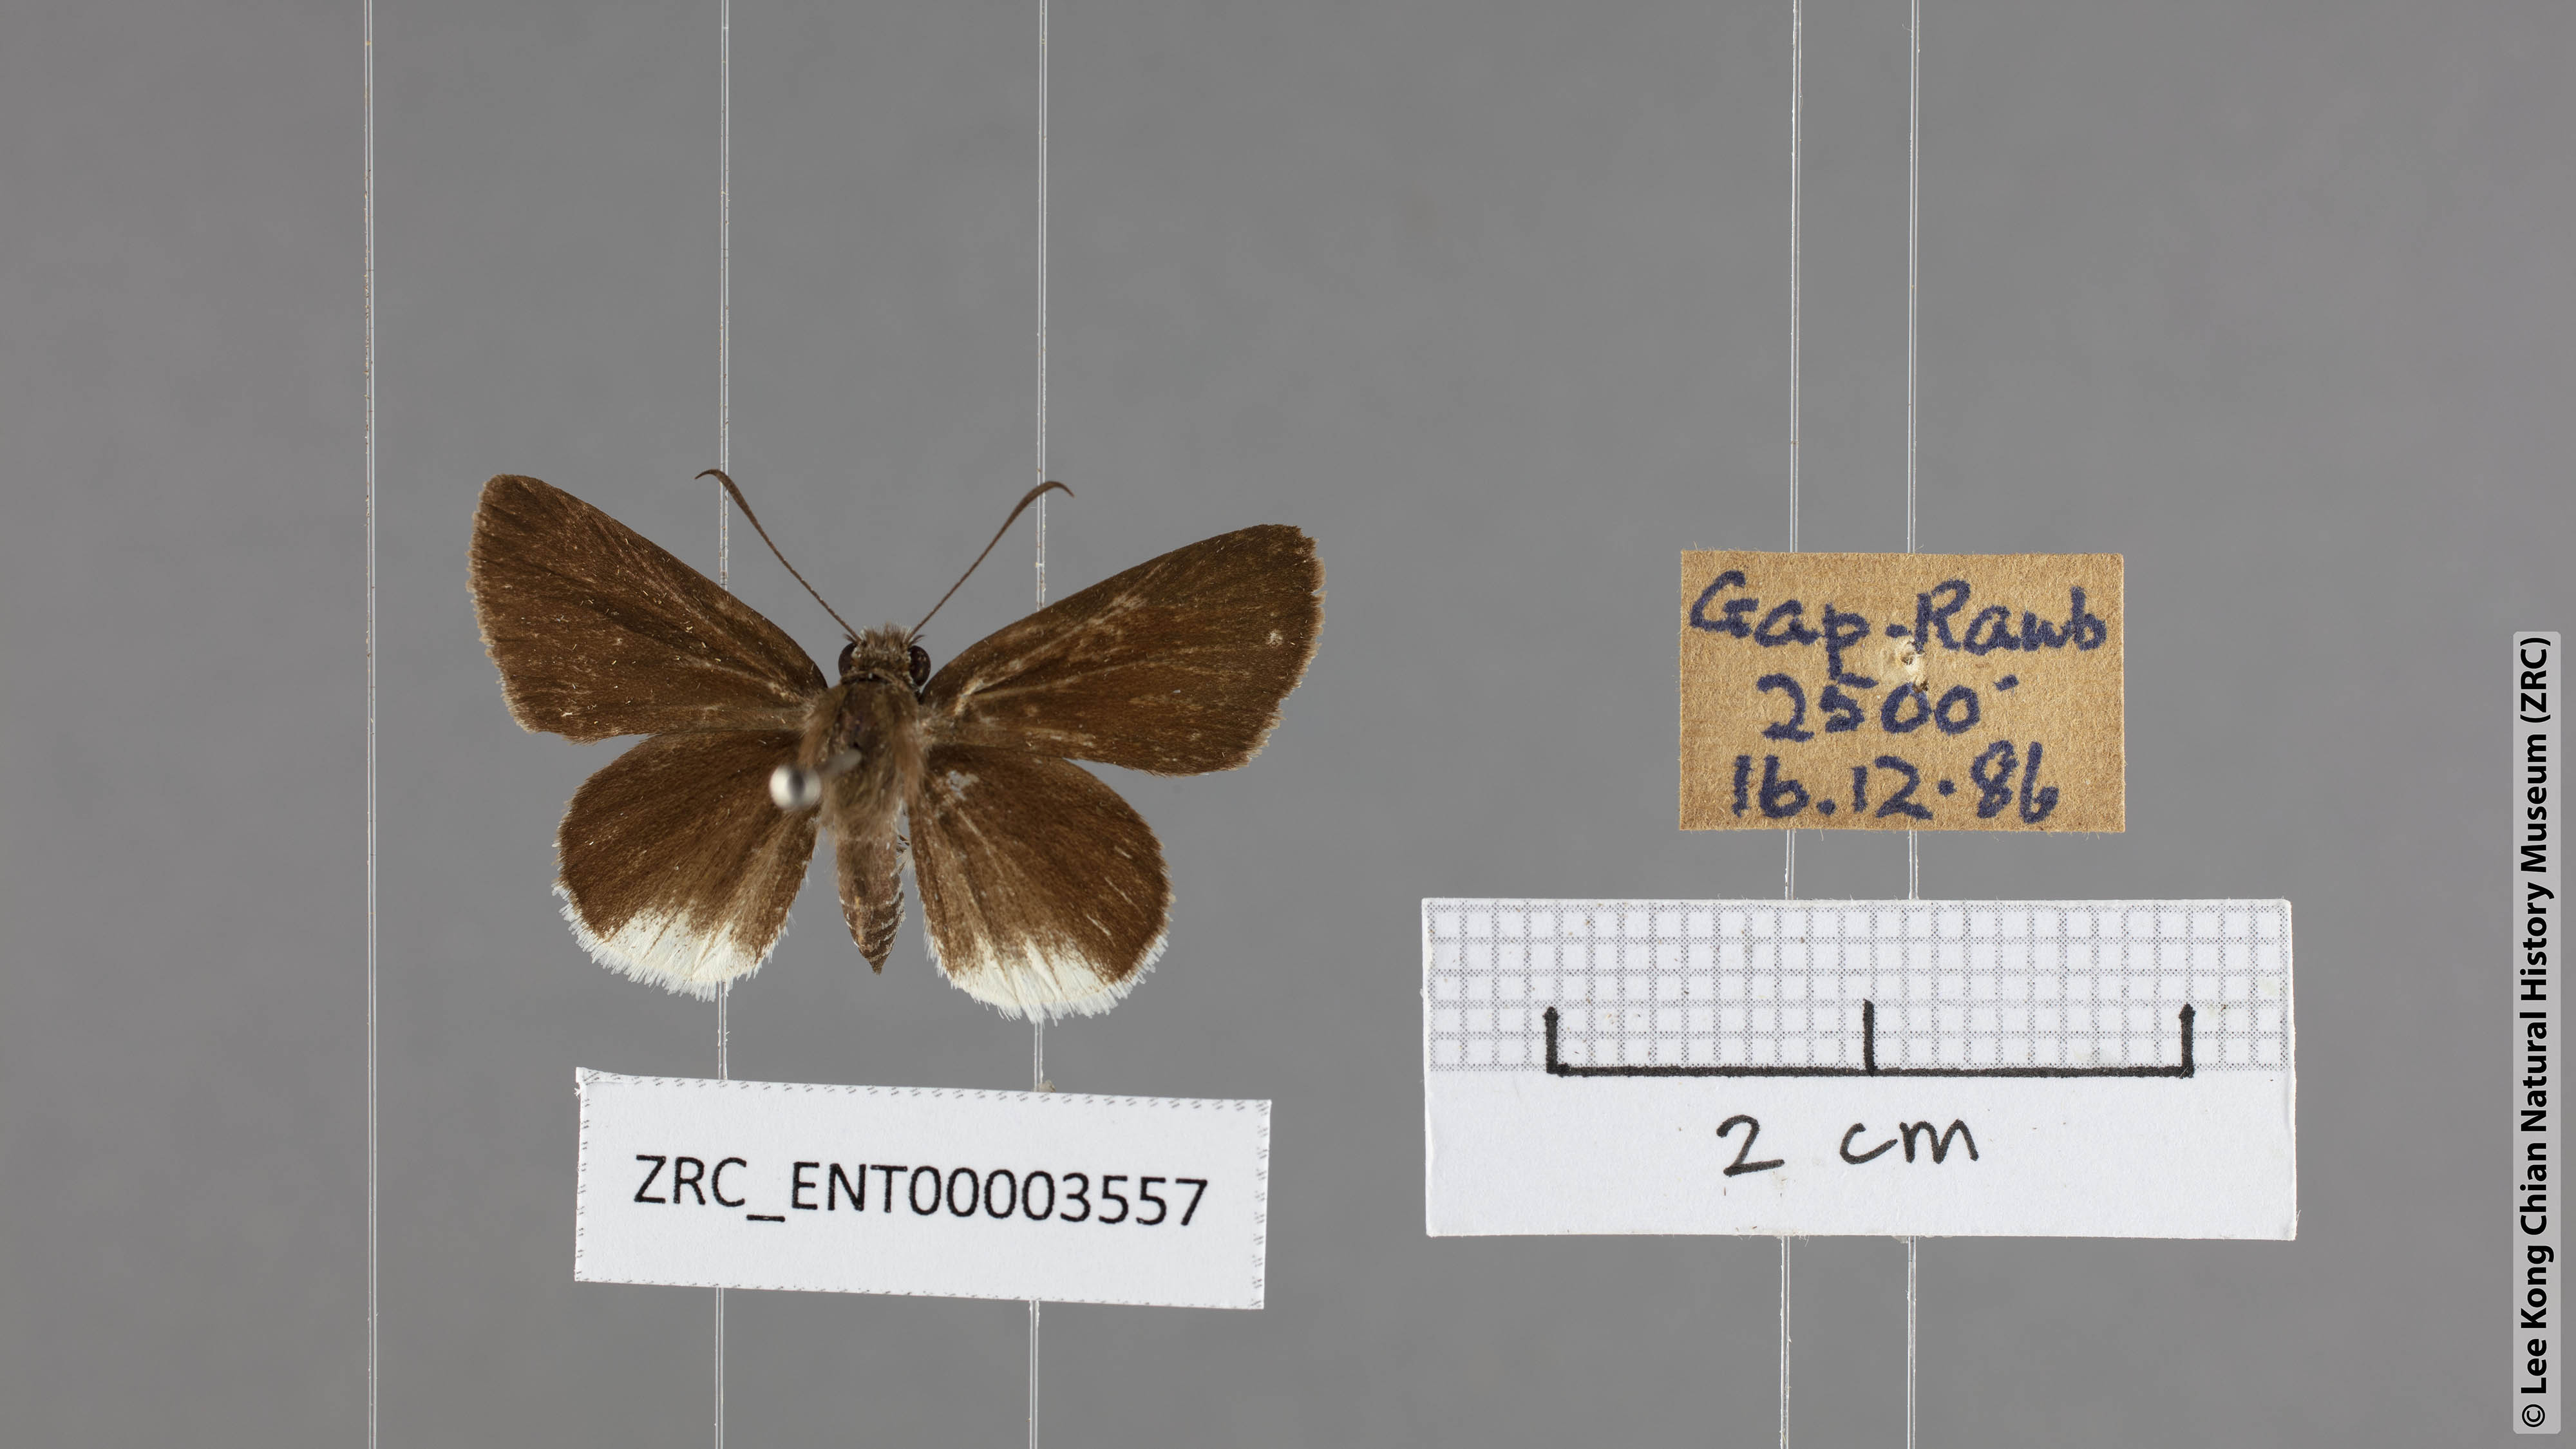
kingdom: Animalia
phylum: Arthropoda
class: Insecta
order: Lepidoptera
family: Hesperiidae
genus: Suastus
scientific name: Suastus everyx
